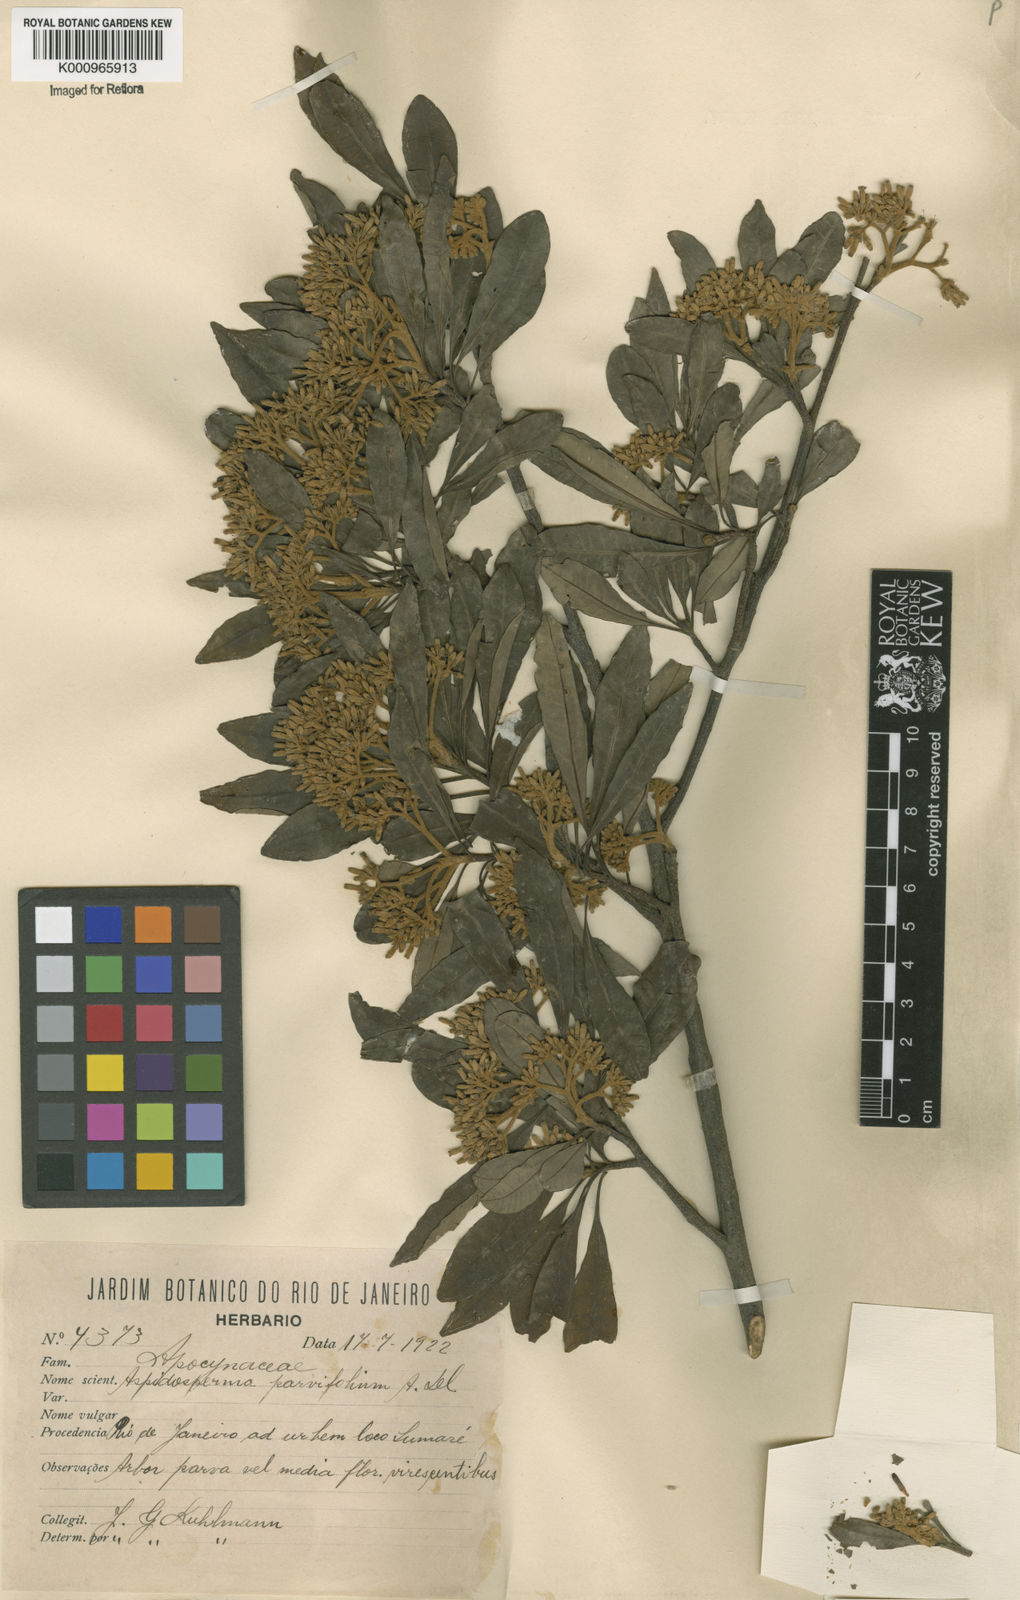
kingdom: Plantae
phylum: Tracheophyta
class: Magnoliopsida
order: Gentianales
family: Apocynaceae
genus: Aspidosperma
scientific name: Aspidosperma
